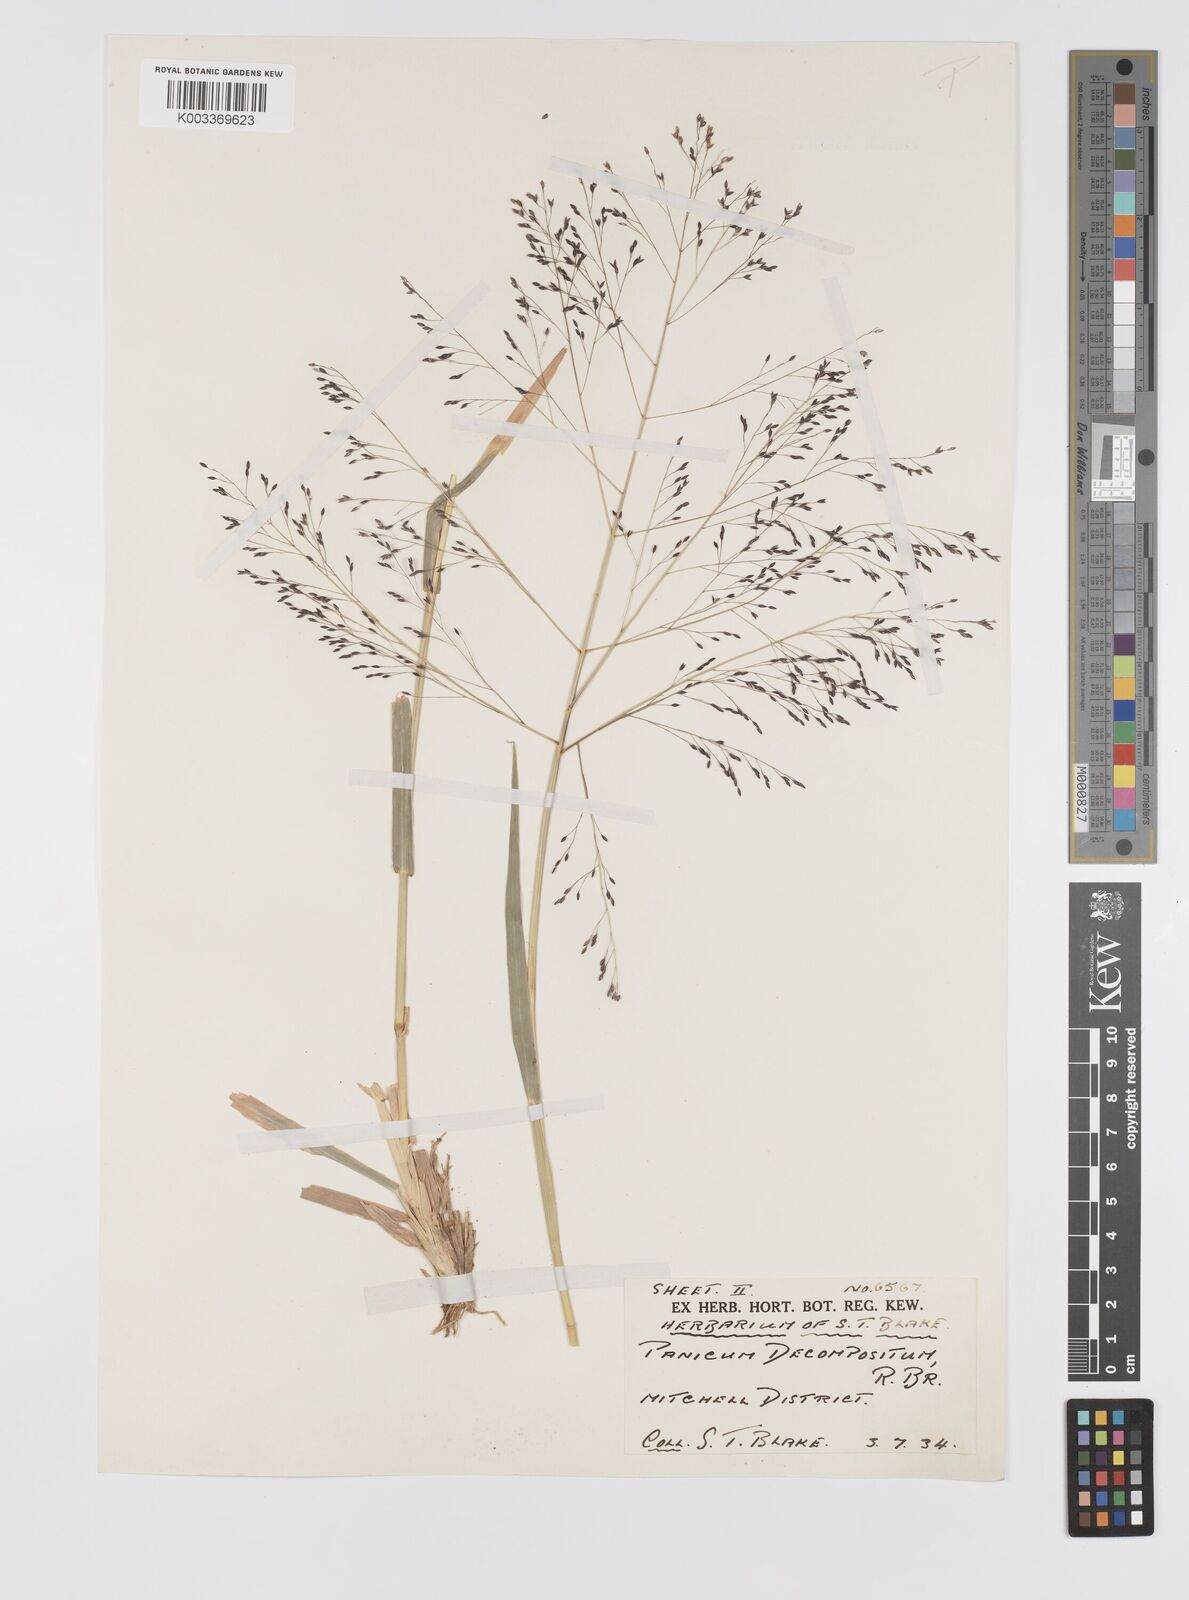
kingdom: Plantae
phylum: Tracheophyta
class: Liliopsida
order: Poales
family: Poaceae
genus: Panicum
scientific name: Panicum decompositum
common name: Australian millet
